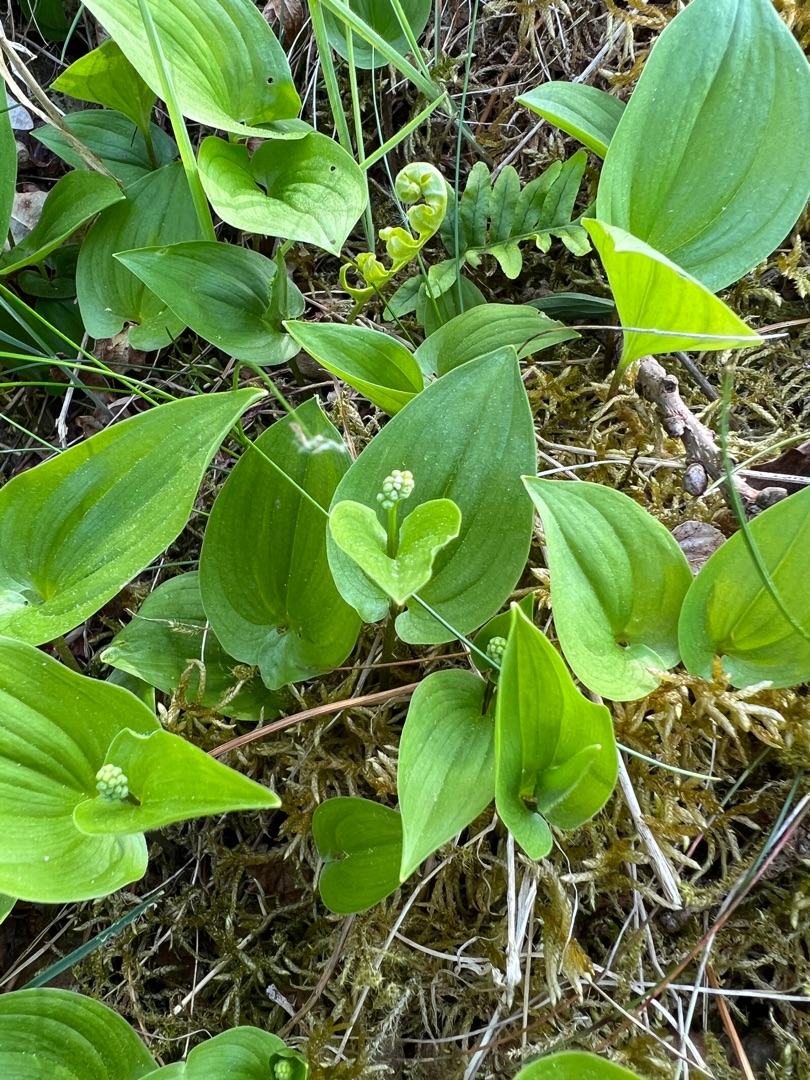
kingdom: Plantae
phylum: Tracheophyta
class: Liliopsida
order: Asparagales
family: Asparagaceae
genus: Maianthemum
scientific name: Maianthemum bifolium
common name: Majblomst
